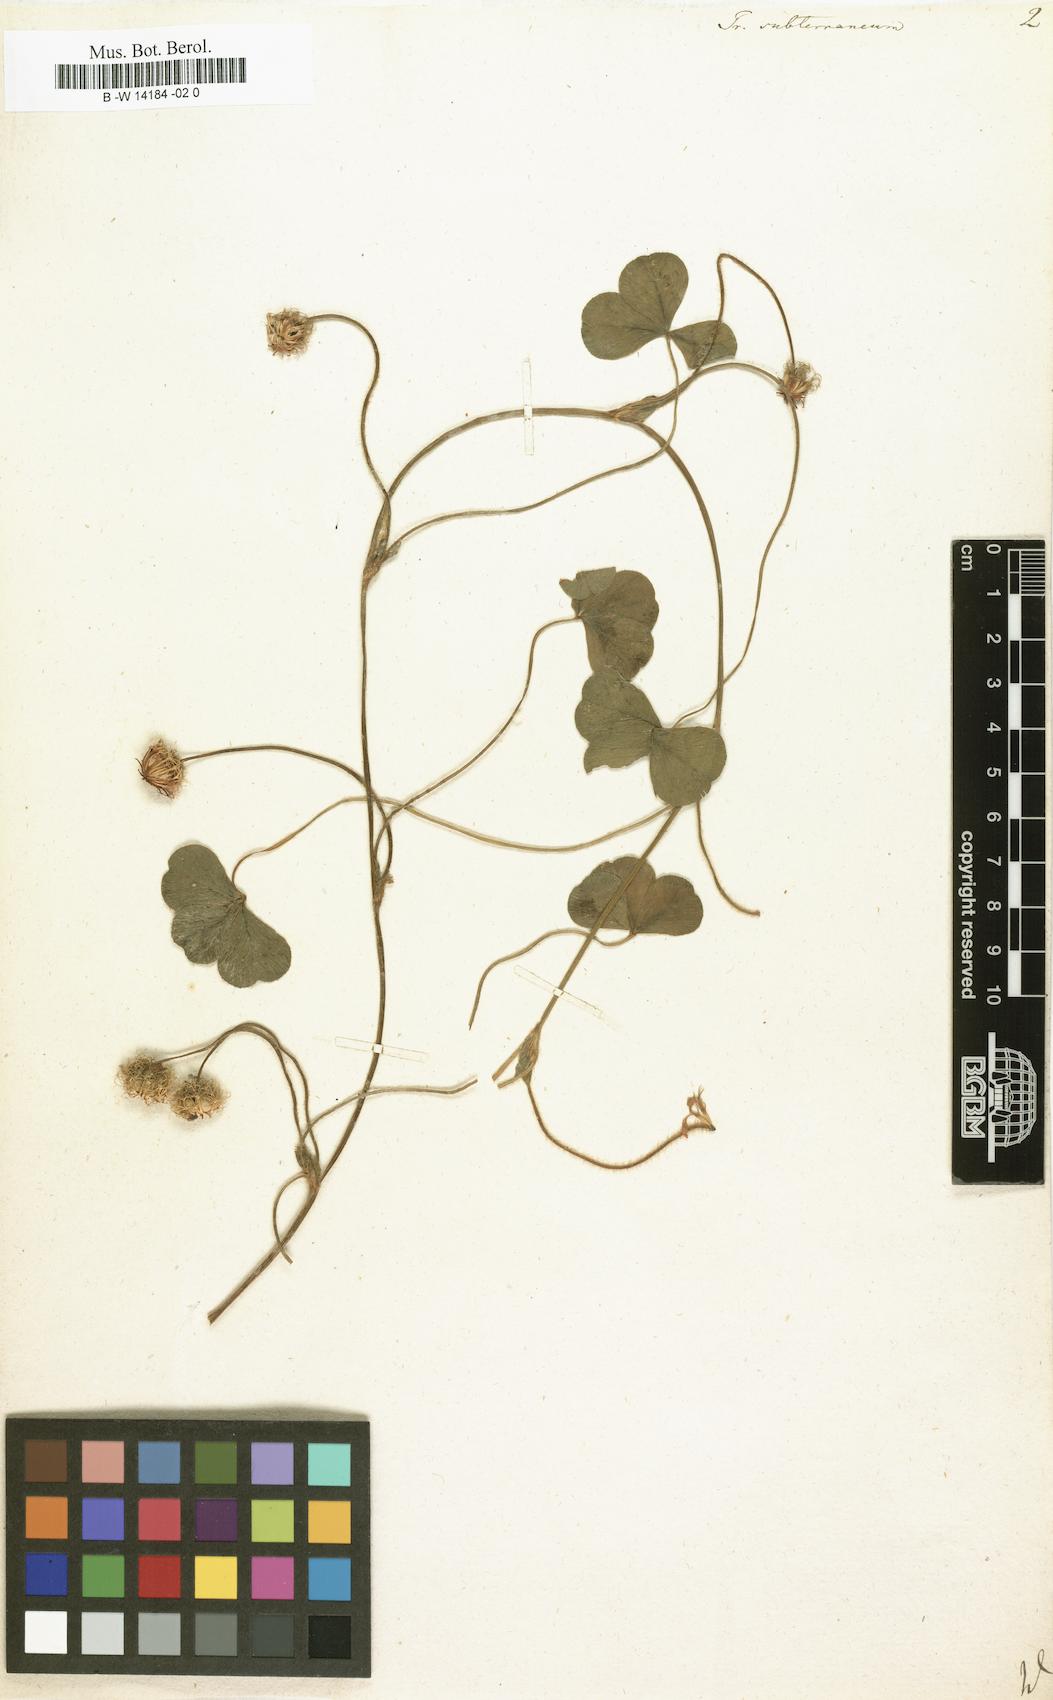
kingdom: Plantae
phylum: Tracheophyta
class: Magnoliopsida
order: Fabales
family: Fabaceae
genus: Trifolium
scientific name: Trifolium subterraneum
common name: Subterranean clover
